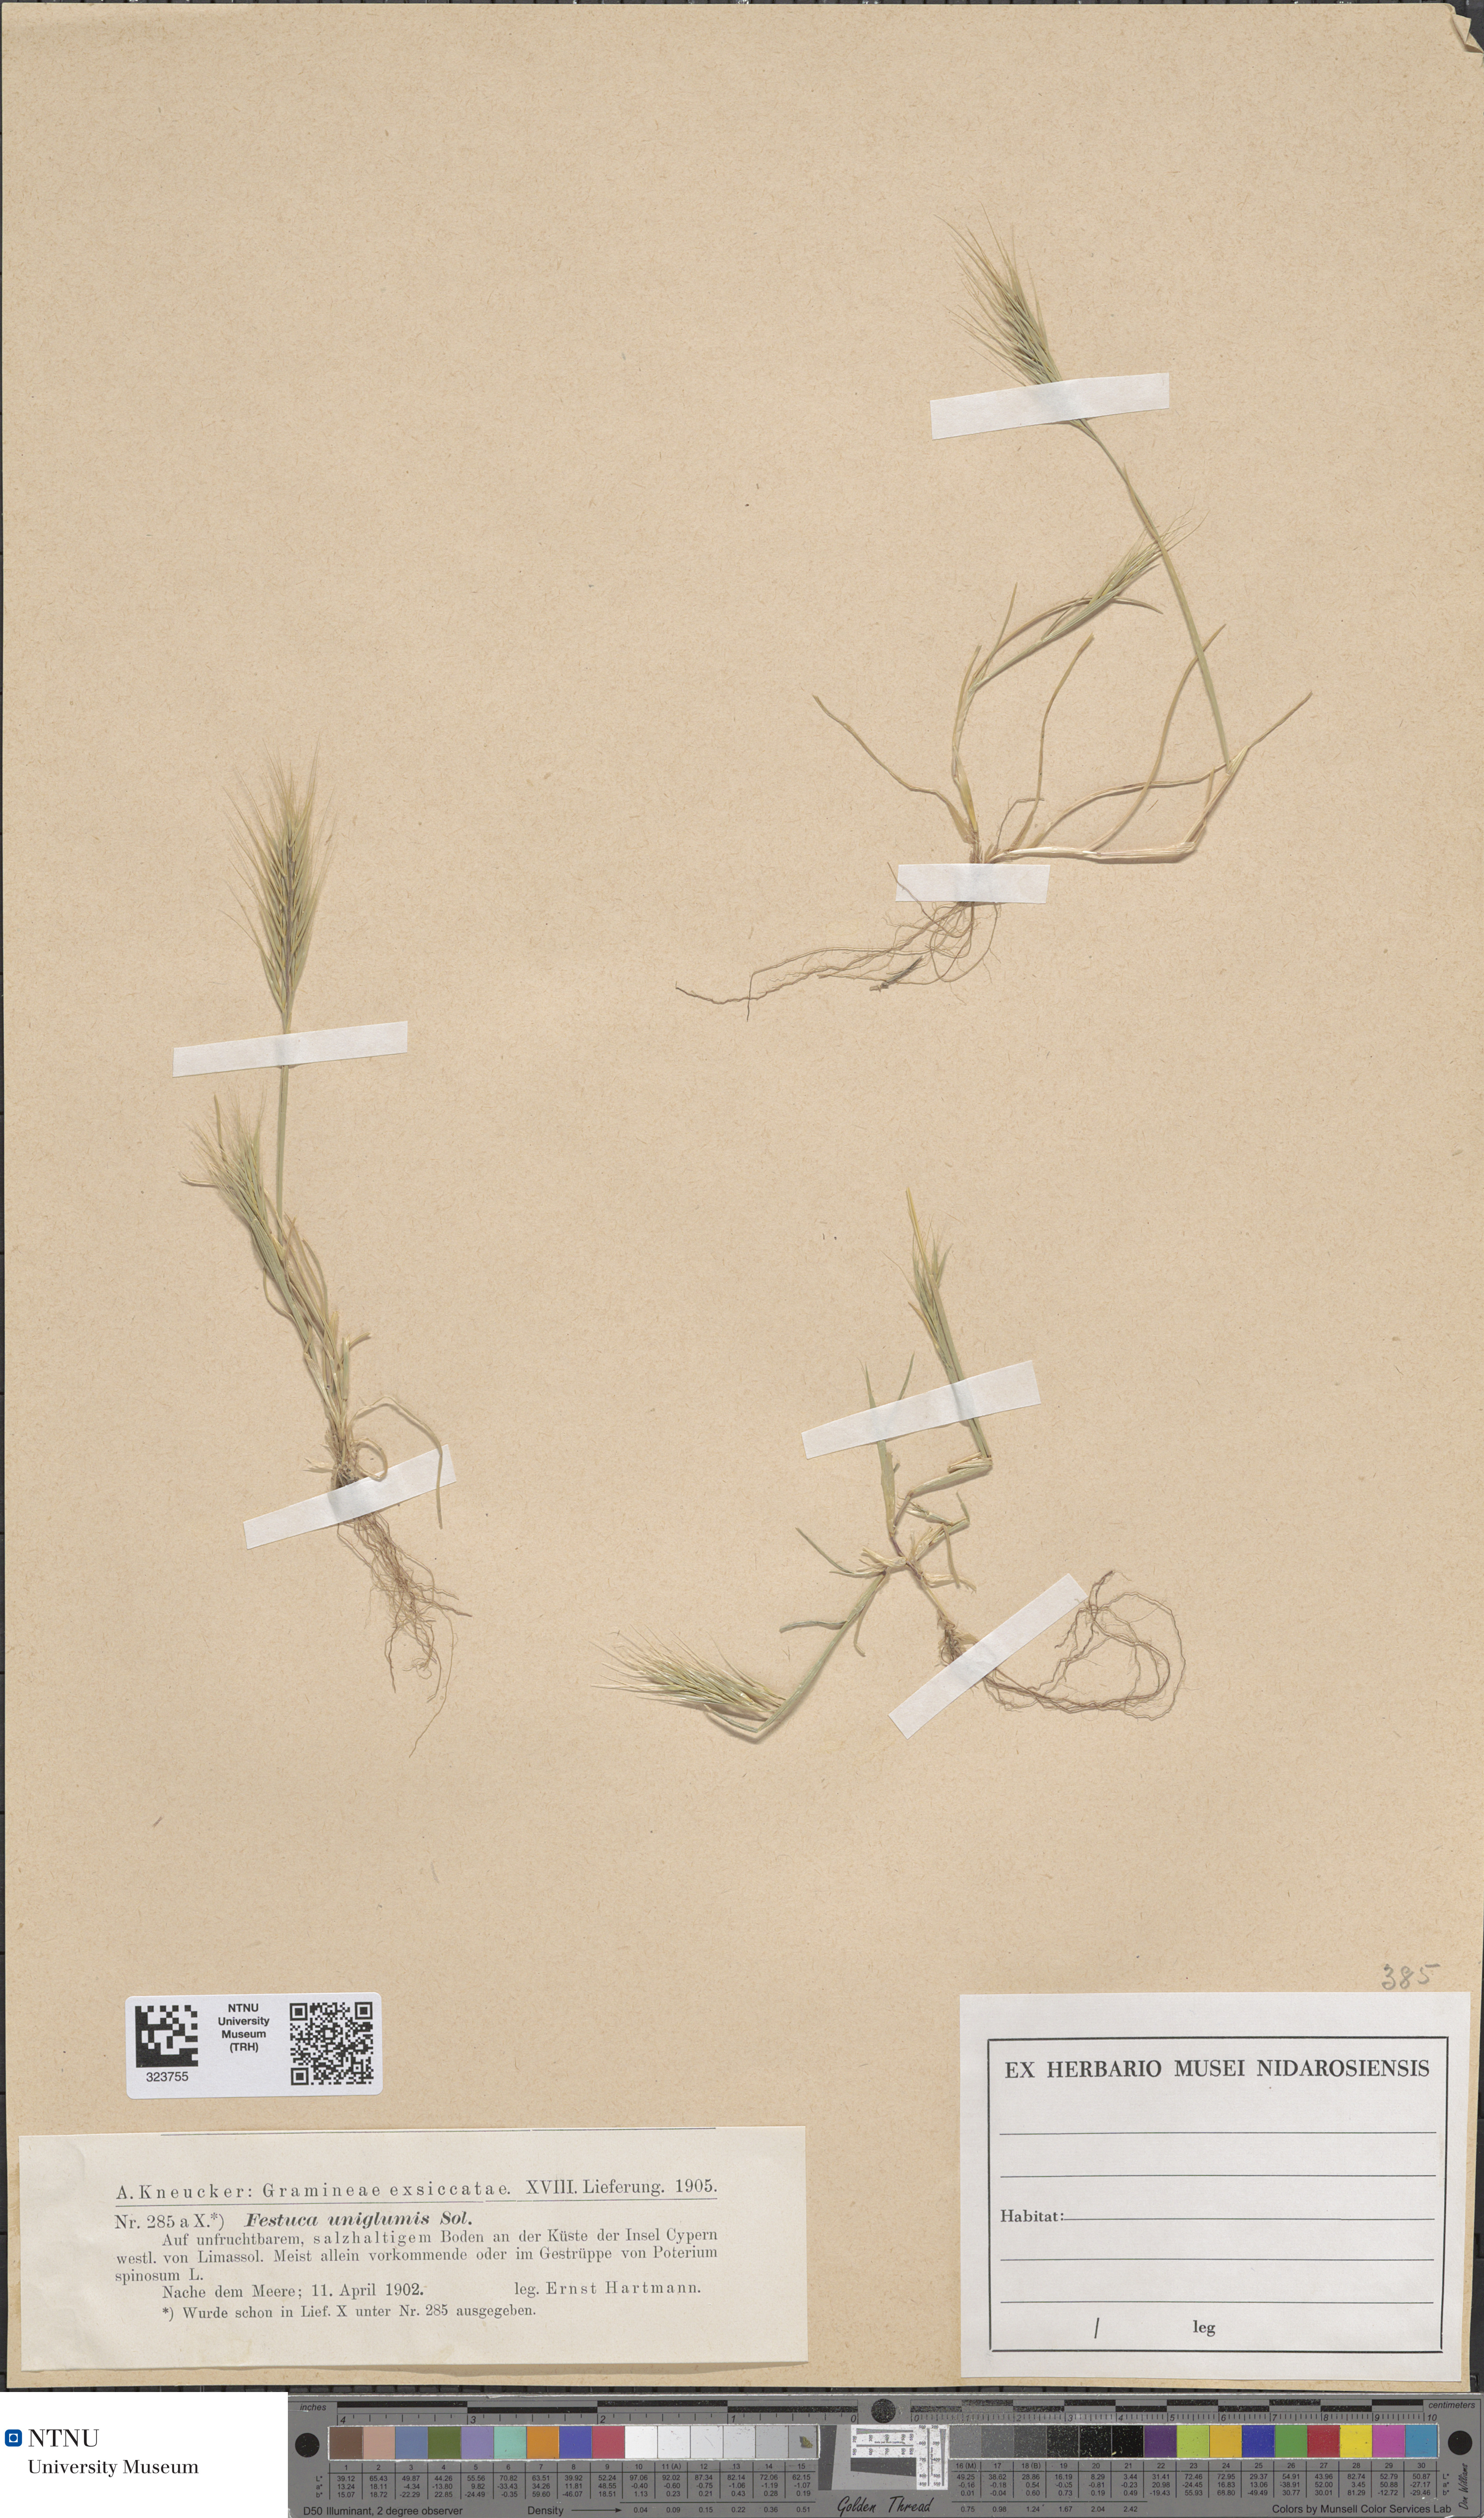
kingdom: Plantae
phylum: Tracheophyta
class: Liliopsida
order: Poales
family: Poaceae
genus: Festuca
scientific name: Festuca bromoides
